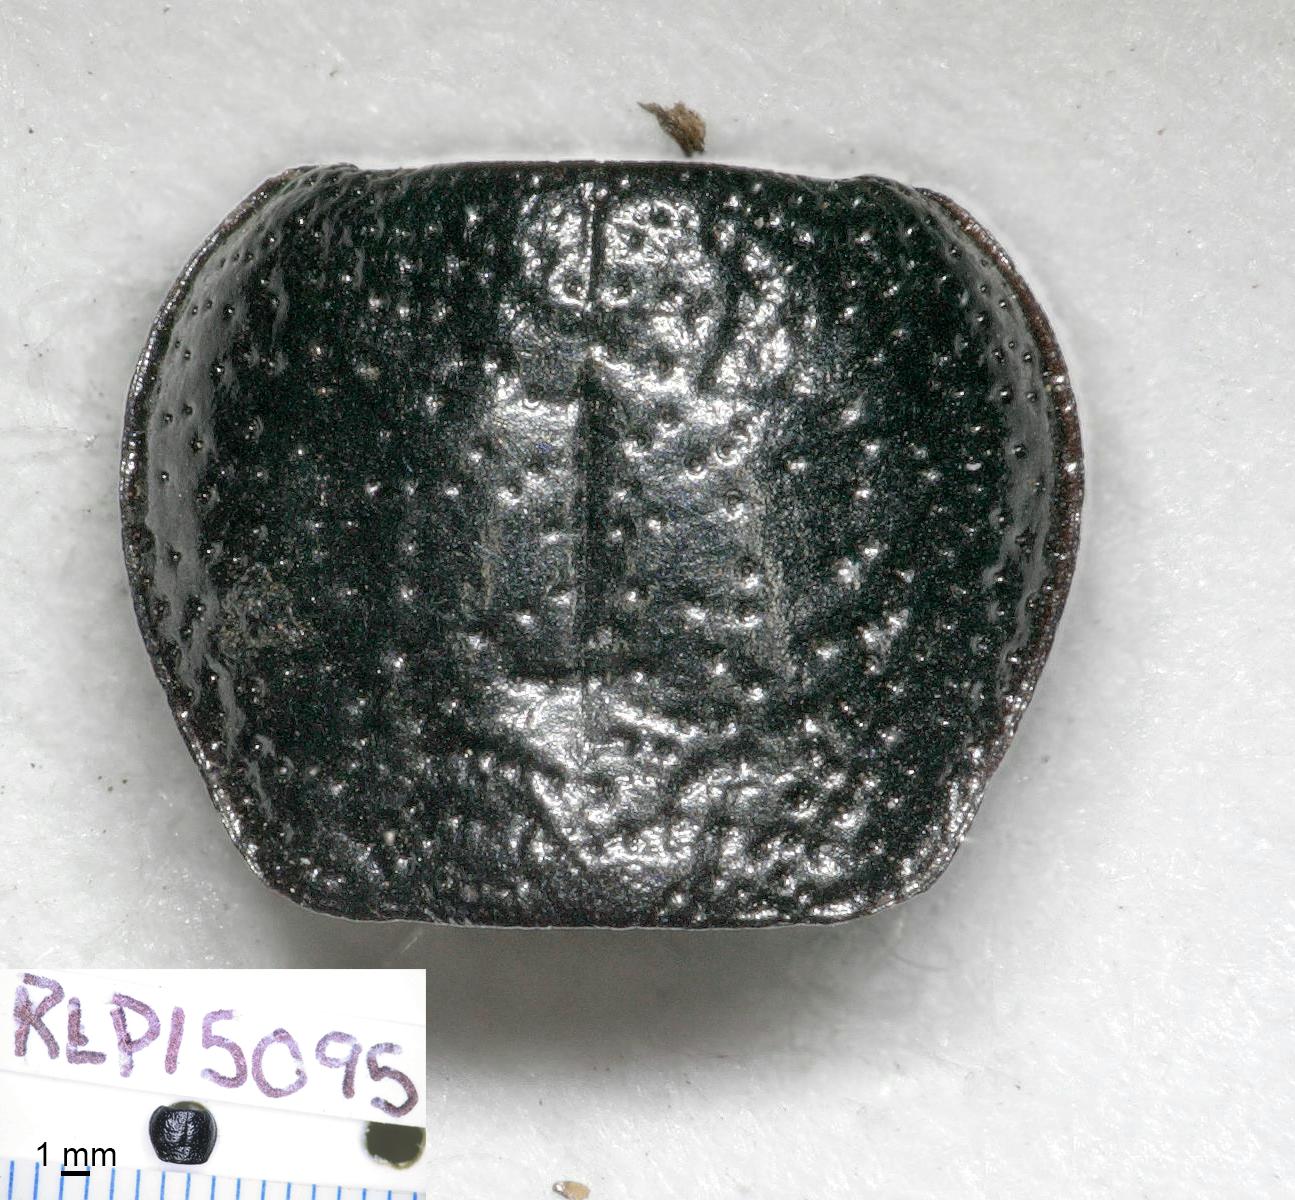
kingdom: Animalia
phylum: Arthropoda
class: Insecta
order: Coleoptera
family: Carabidae
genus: Dicheirus
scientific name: Dicheirus dilatatus
